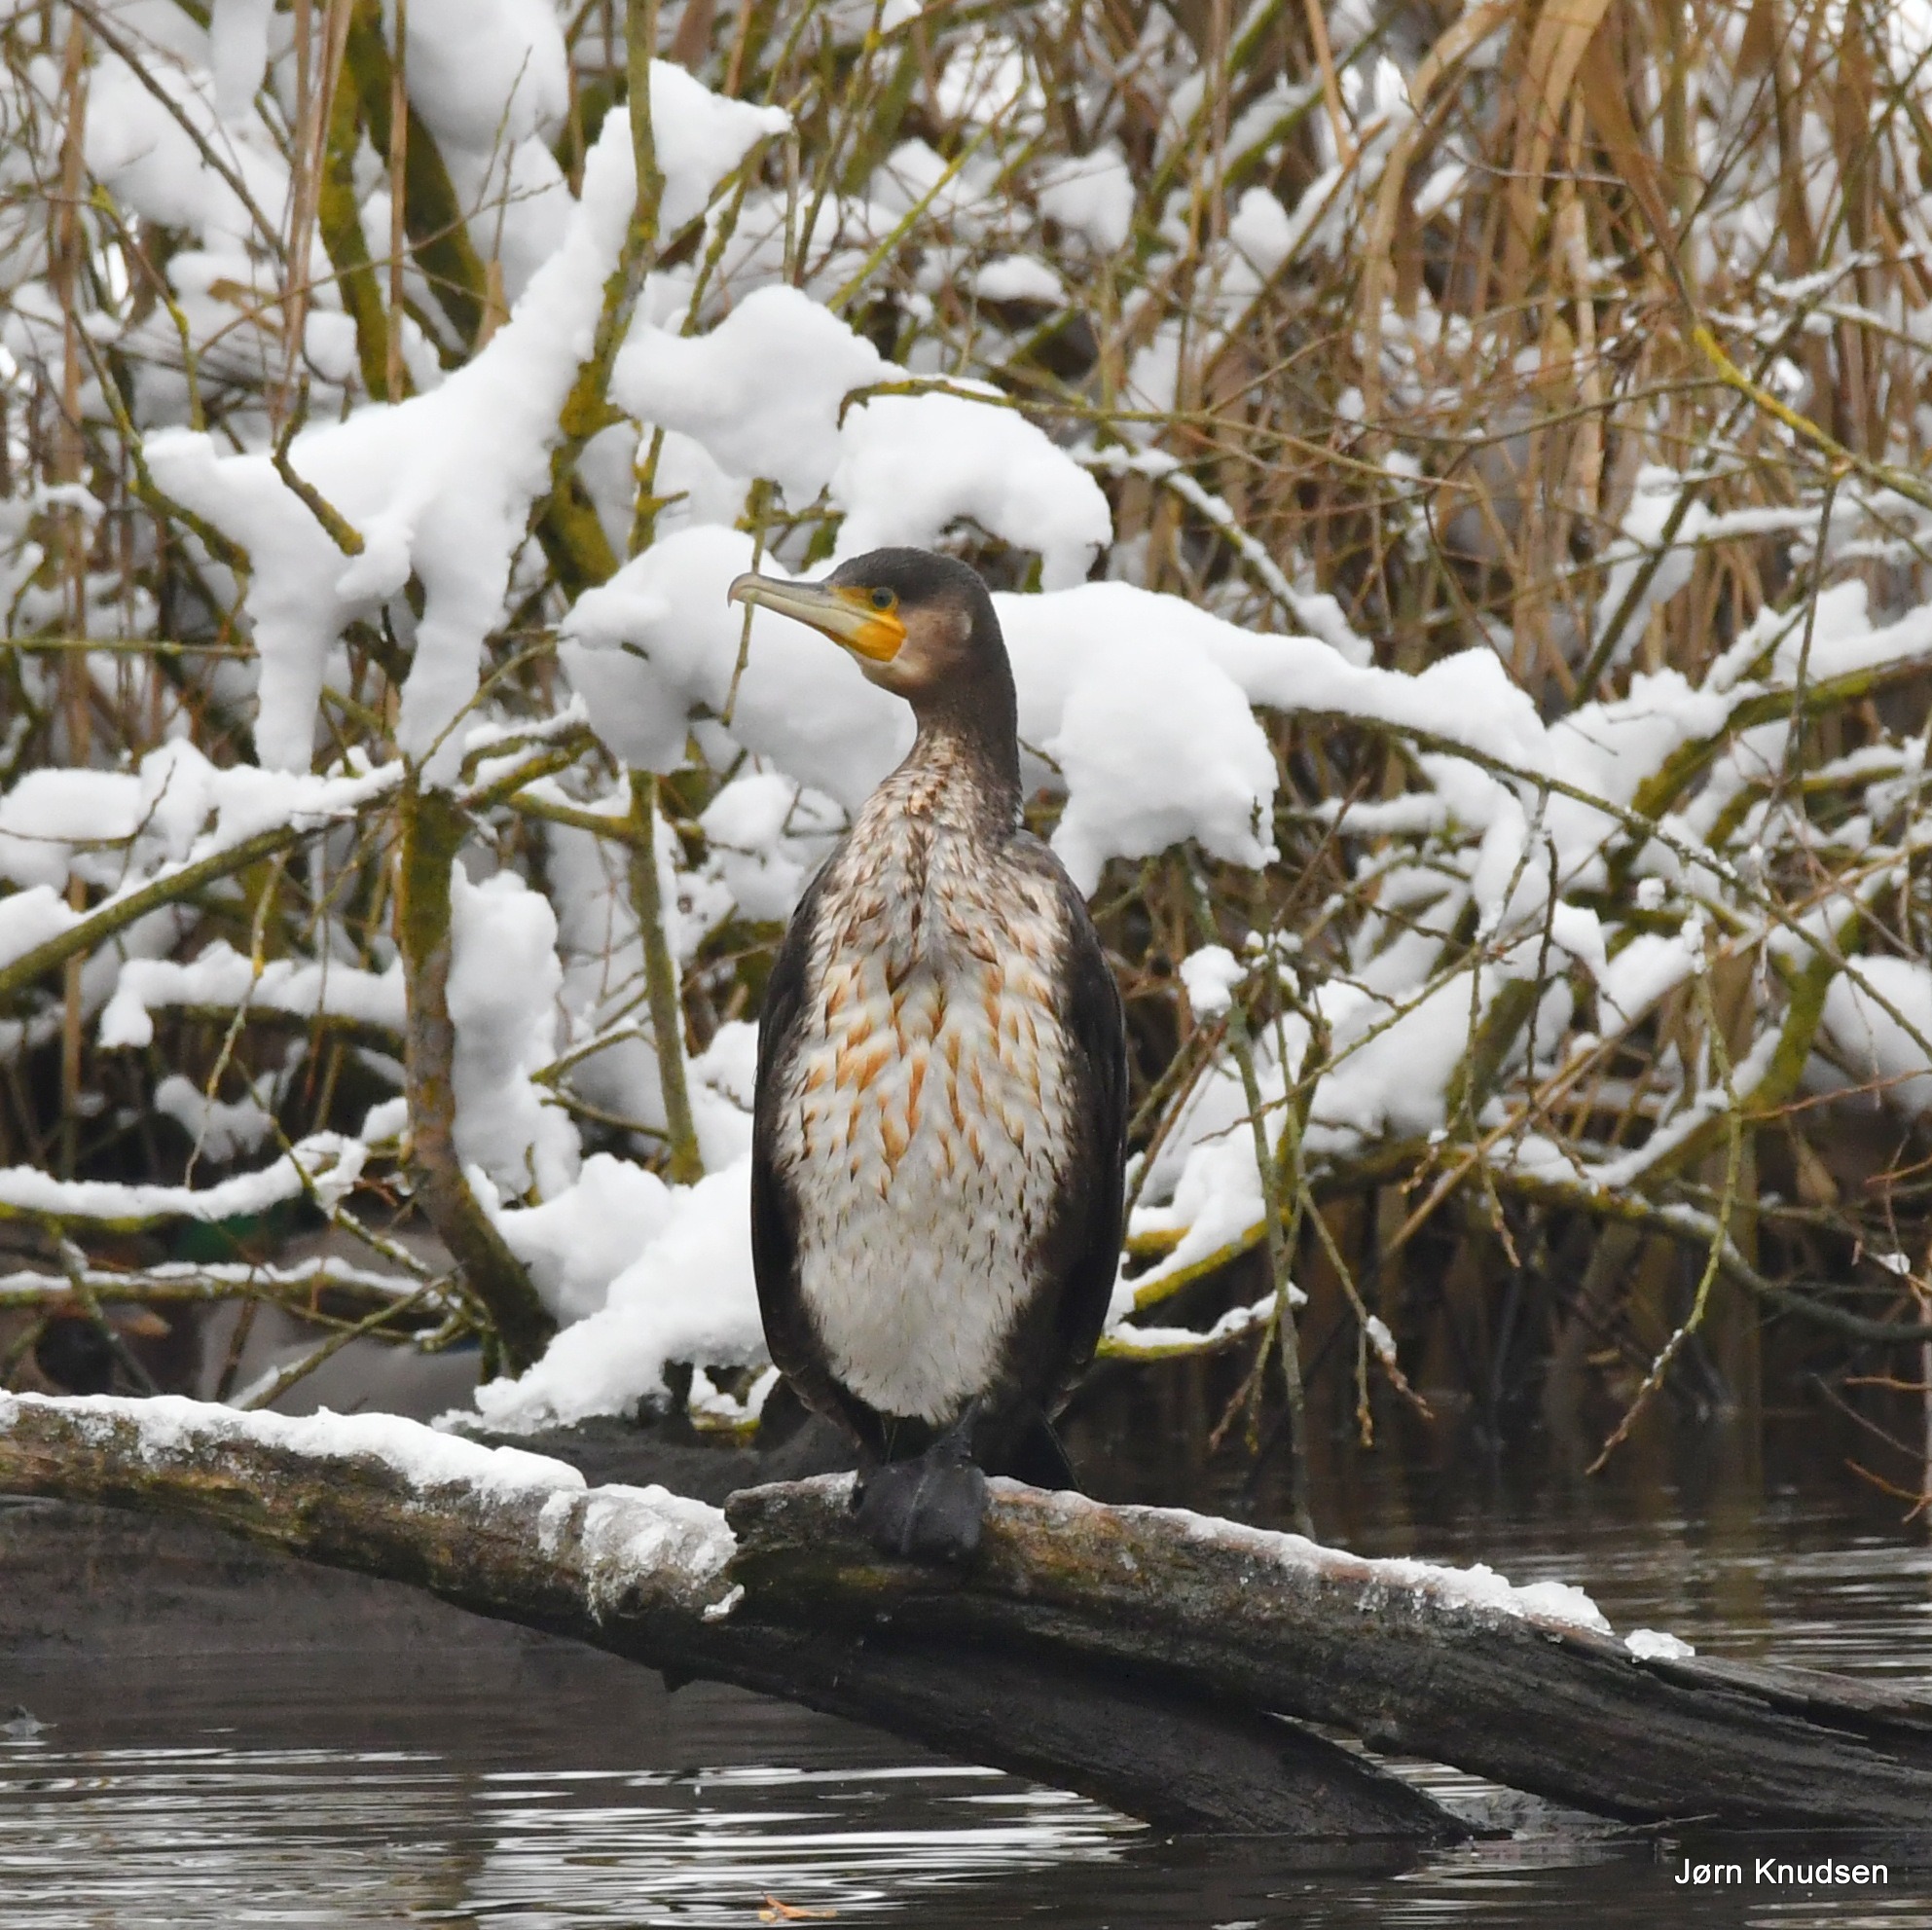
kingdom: Animalia
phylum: Chordata
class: Aves
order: Suliformes
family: Phalacrocoracidae
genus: Phalacrocorax
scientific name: Phalacrocorax carbo
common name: Mellemskarv
